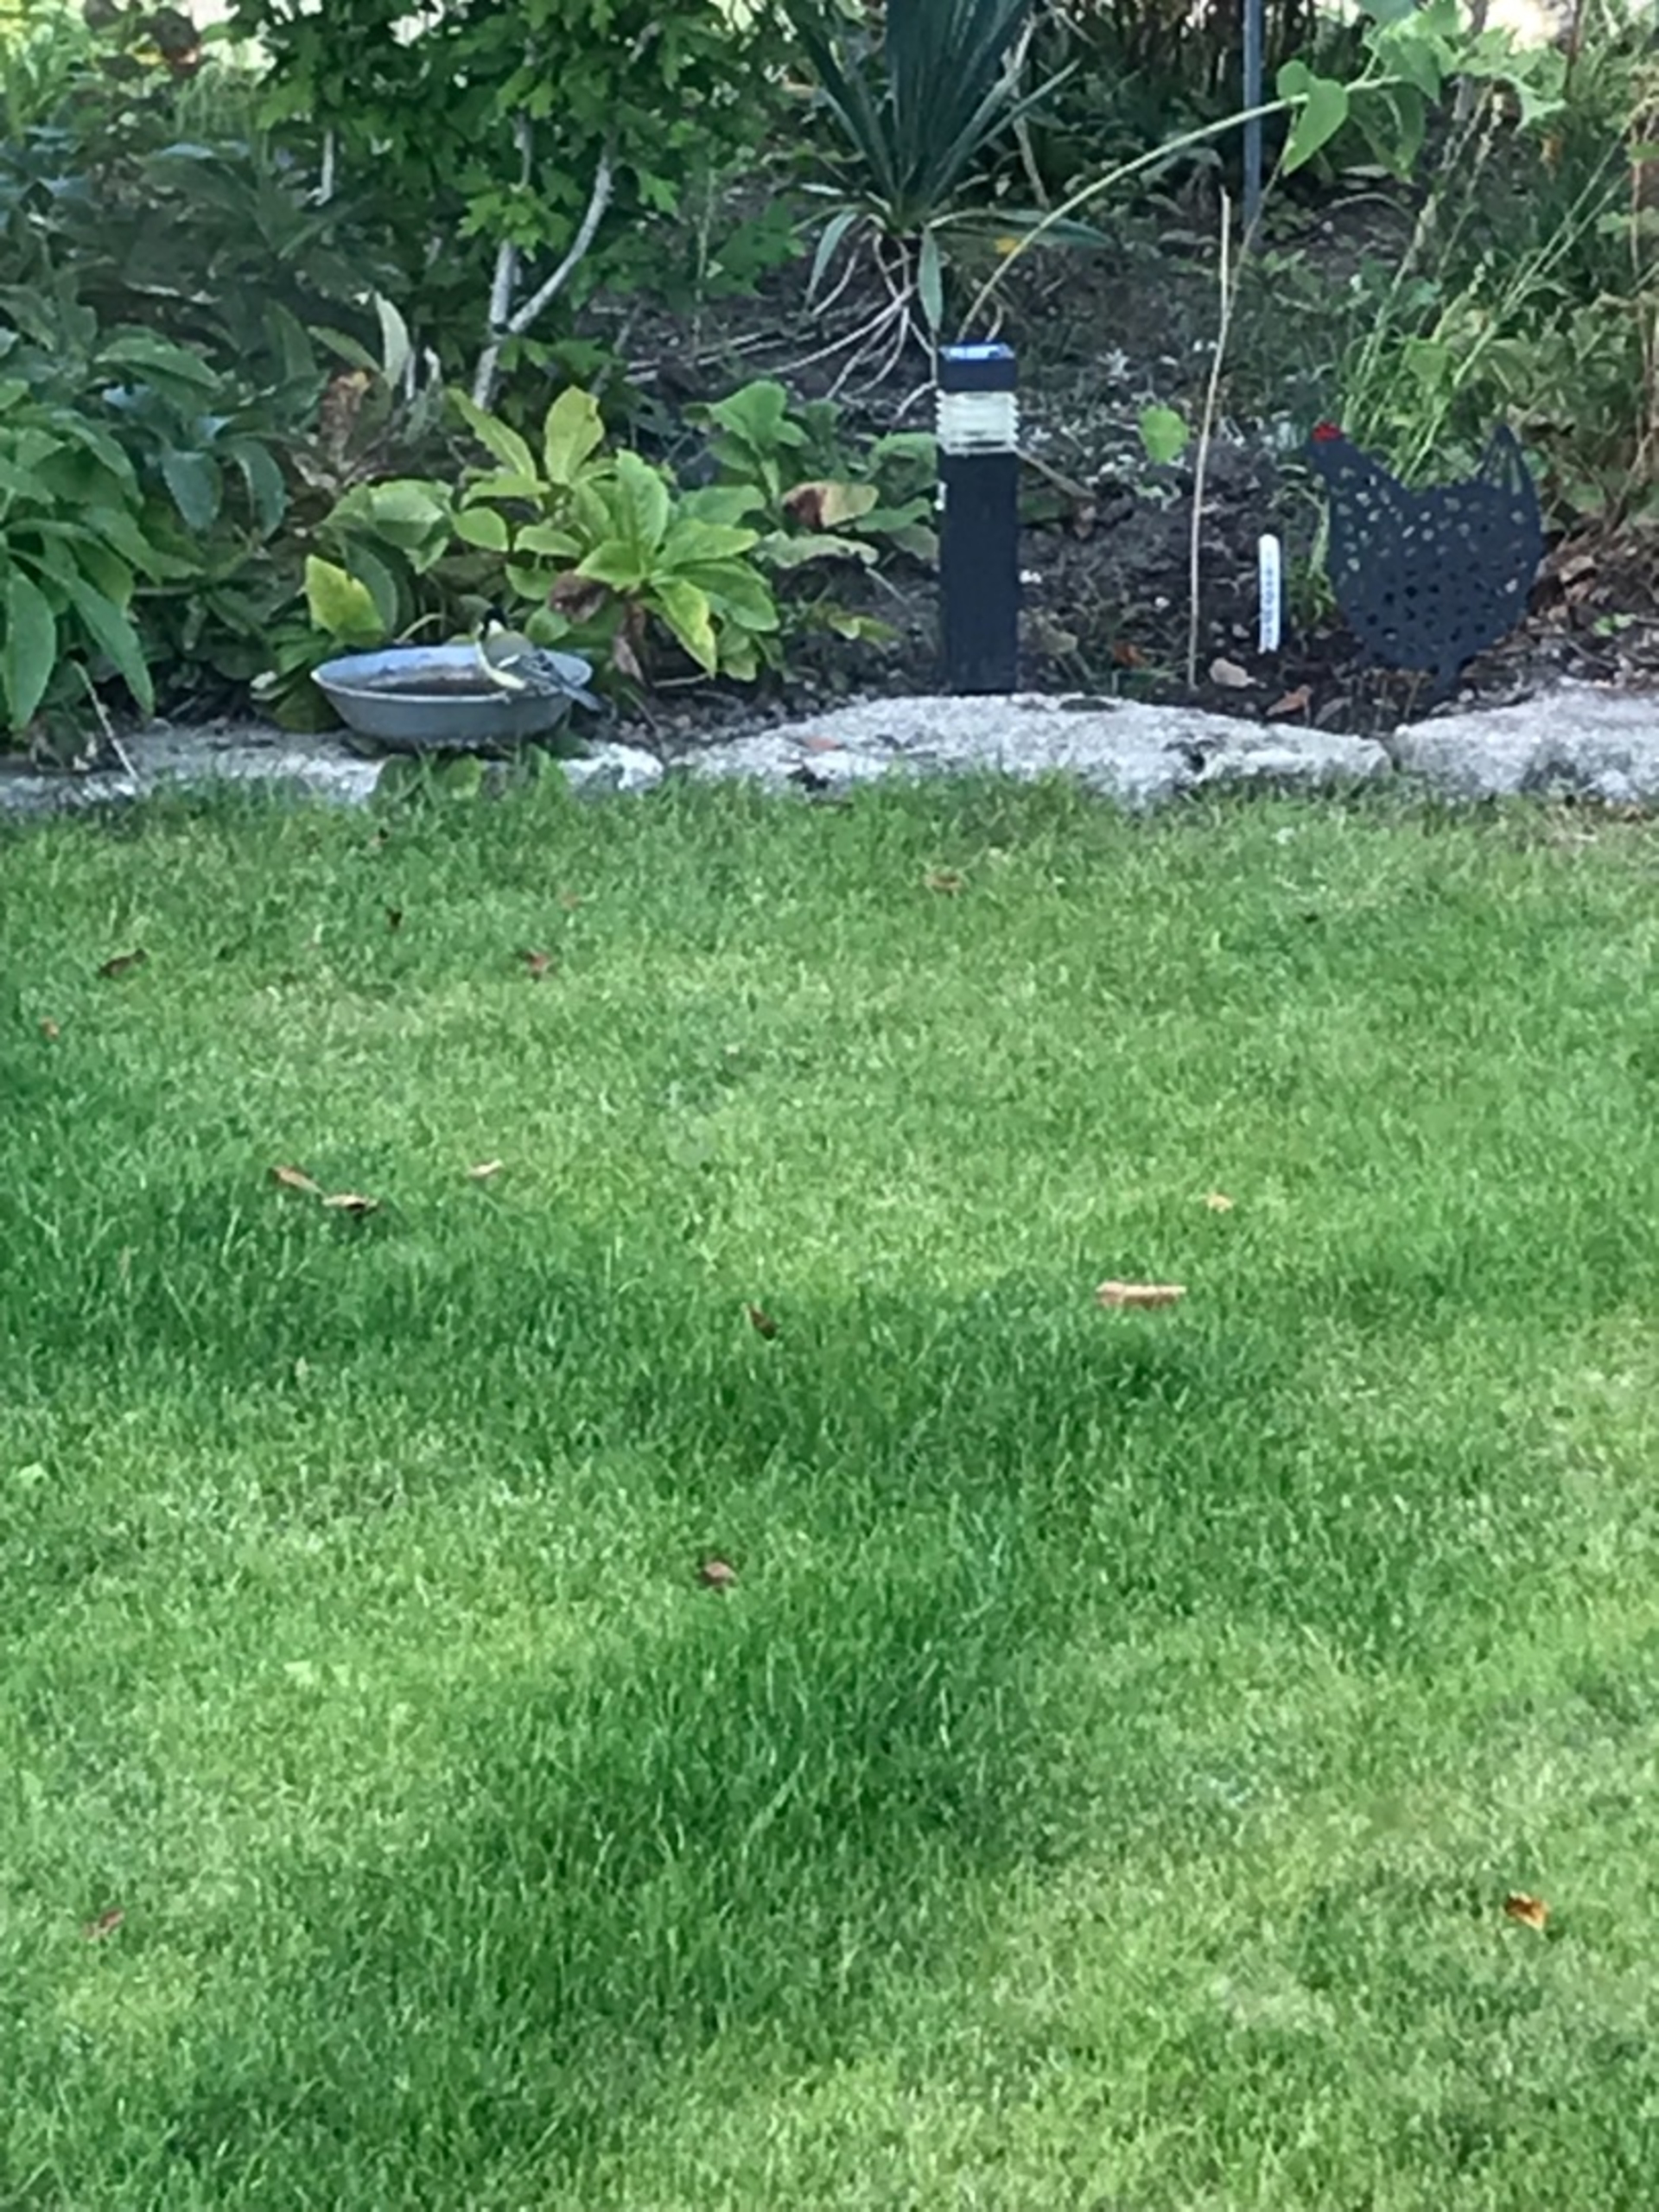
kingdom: Animalia
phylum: Chordata
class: Aves
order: Passeriformes
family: Paridae
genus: Parus
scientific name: Parus major
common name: Musvit
